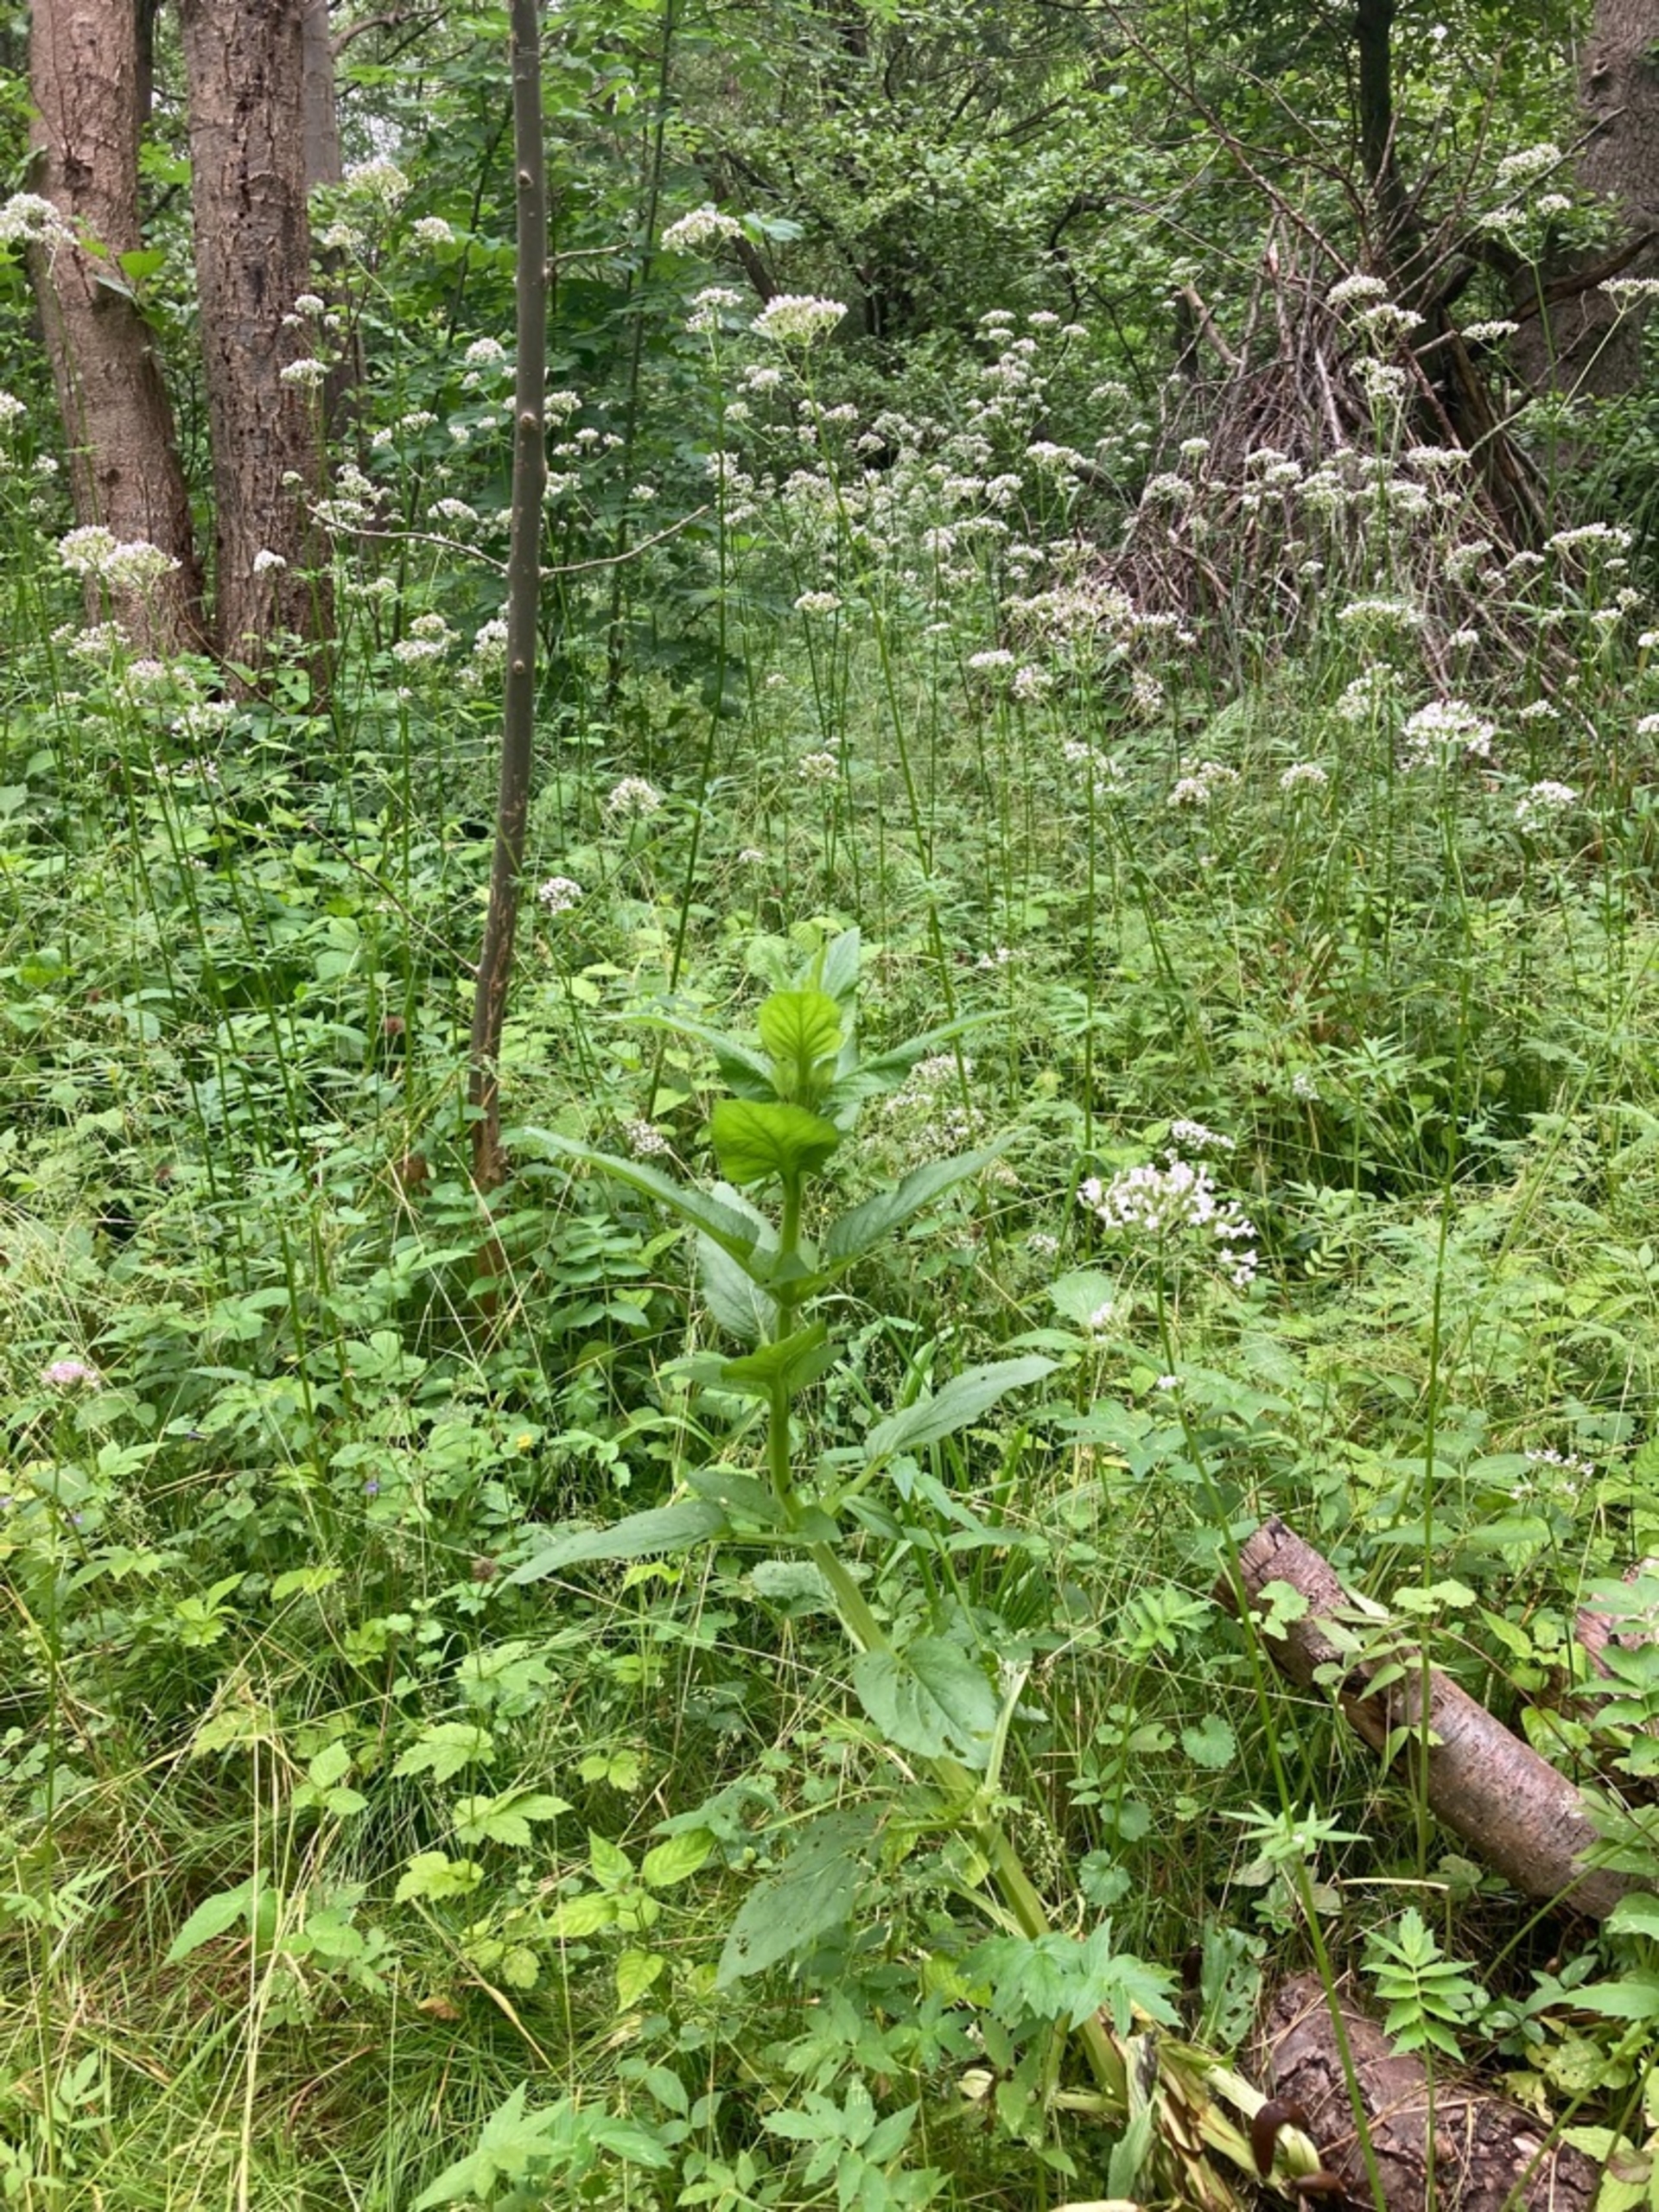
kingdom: Plantae
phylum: Tracheophyta
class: Magnoliopsida
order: Lamiales
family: Scrophulariaceae
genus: Scrophularia
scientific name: Scrophularia umbrosa
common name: Vand-brunrod
